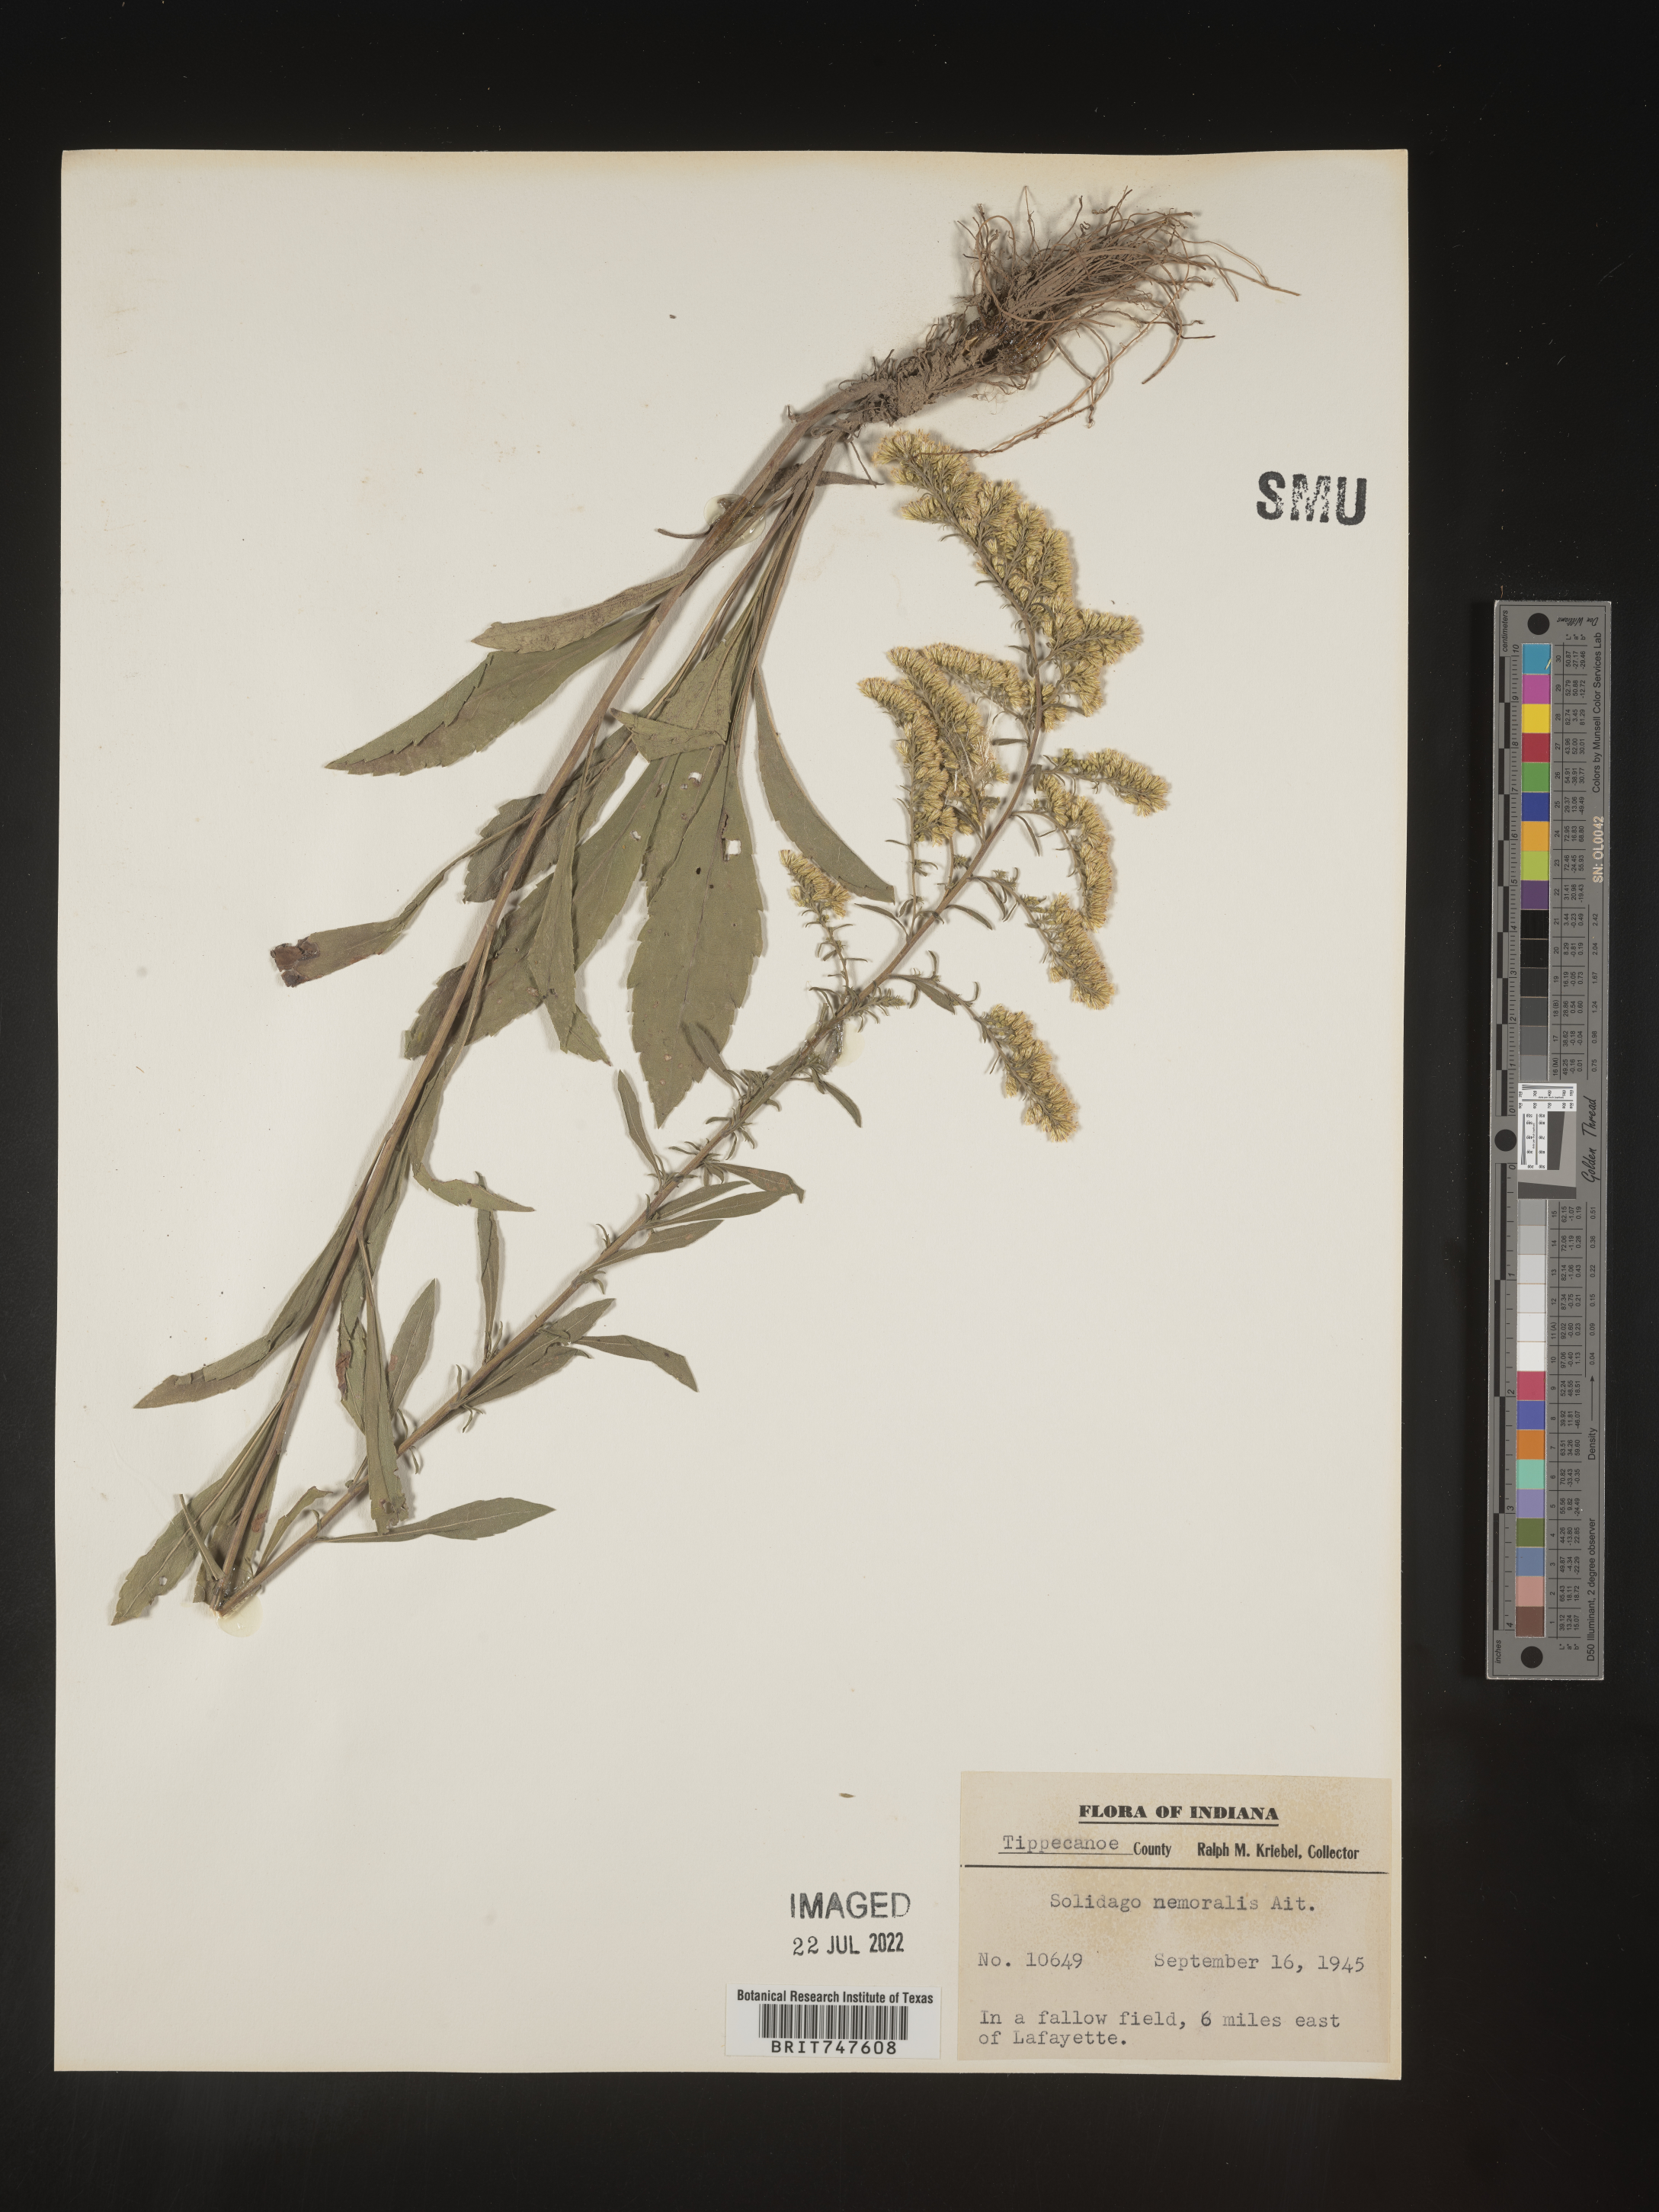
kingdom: Plantae
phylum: Tracheophyta
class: Magnoliopsida
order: Asterales
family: Asteraceae
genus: Solidago
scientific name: Solidago nemoralis
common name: Grey goldenrod
